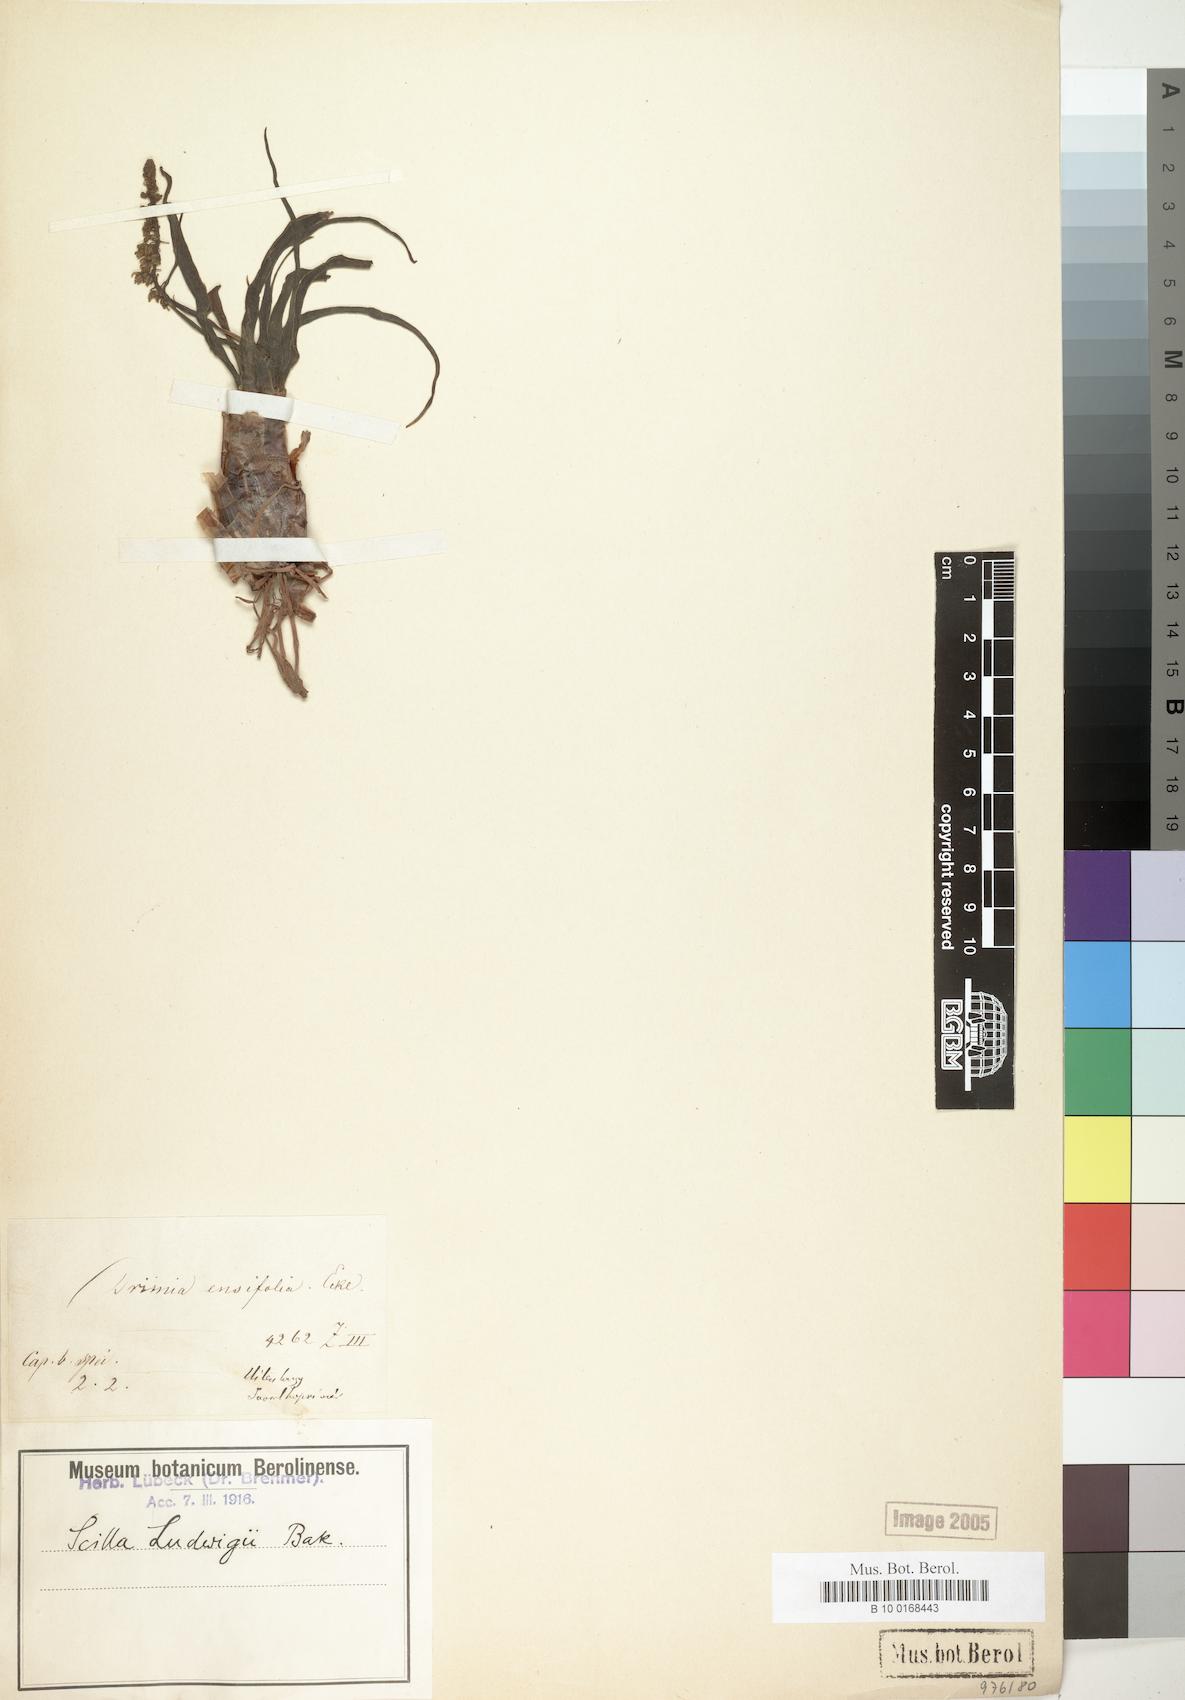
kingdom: Plantae
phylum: Tracheophyta
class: Liliopsida
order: Asparagales
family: Asparagaceae
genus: Ledebouria
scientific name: Ledebouria ensifolia
